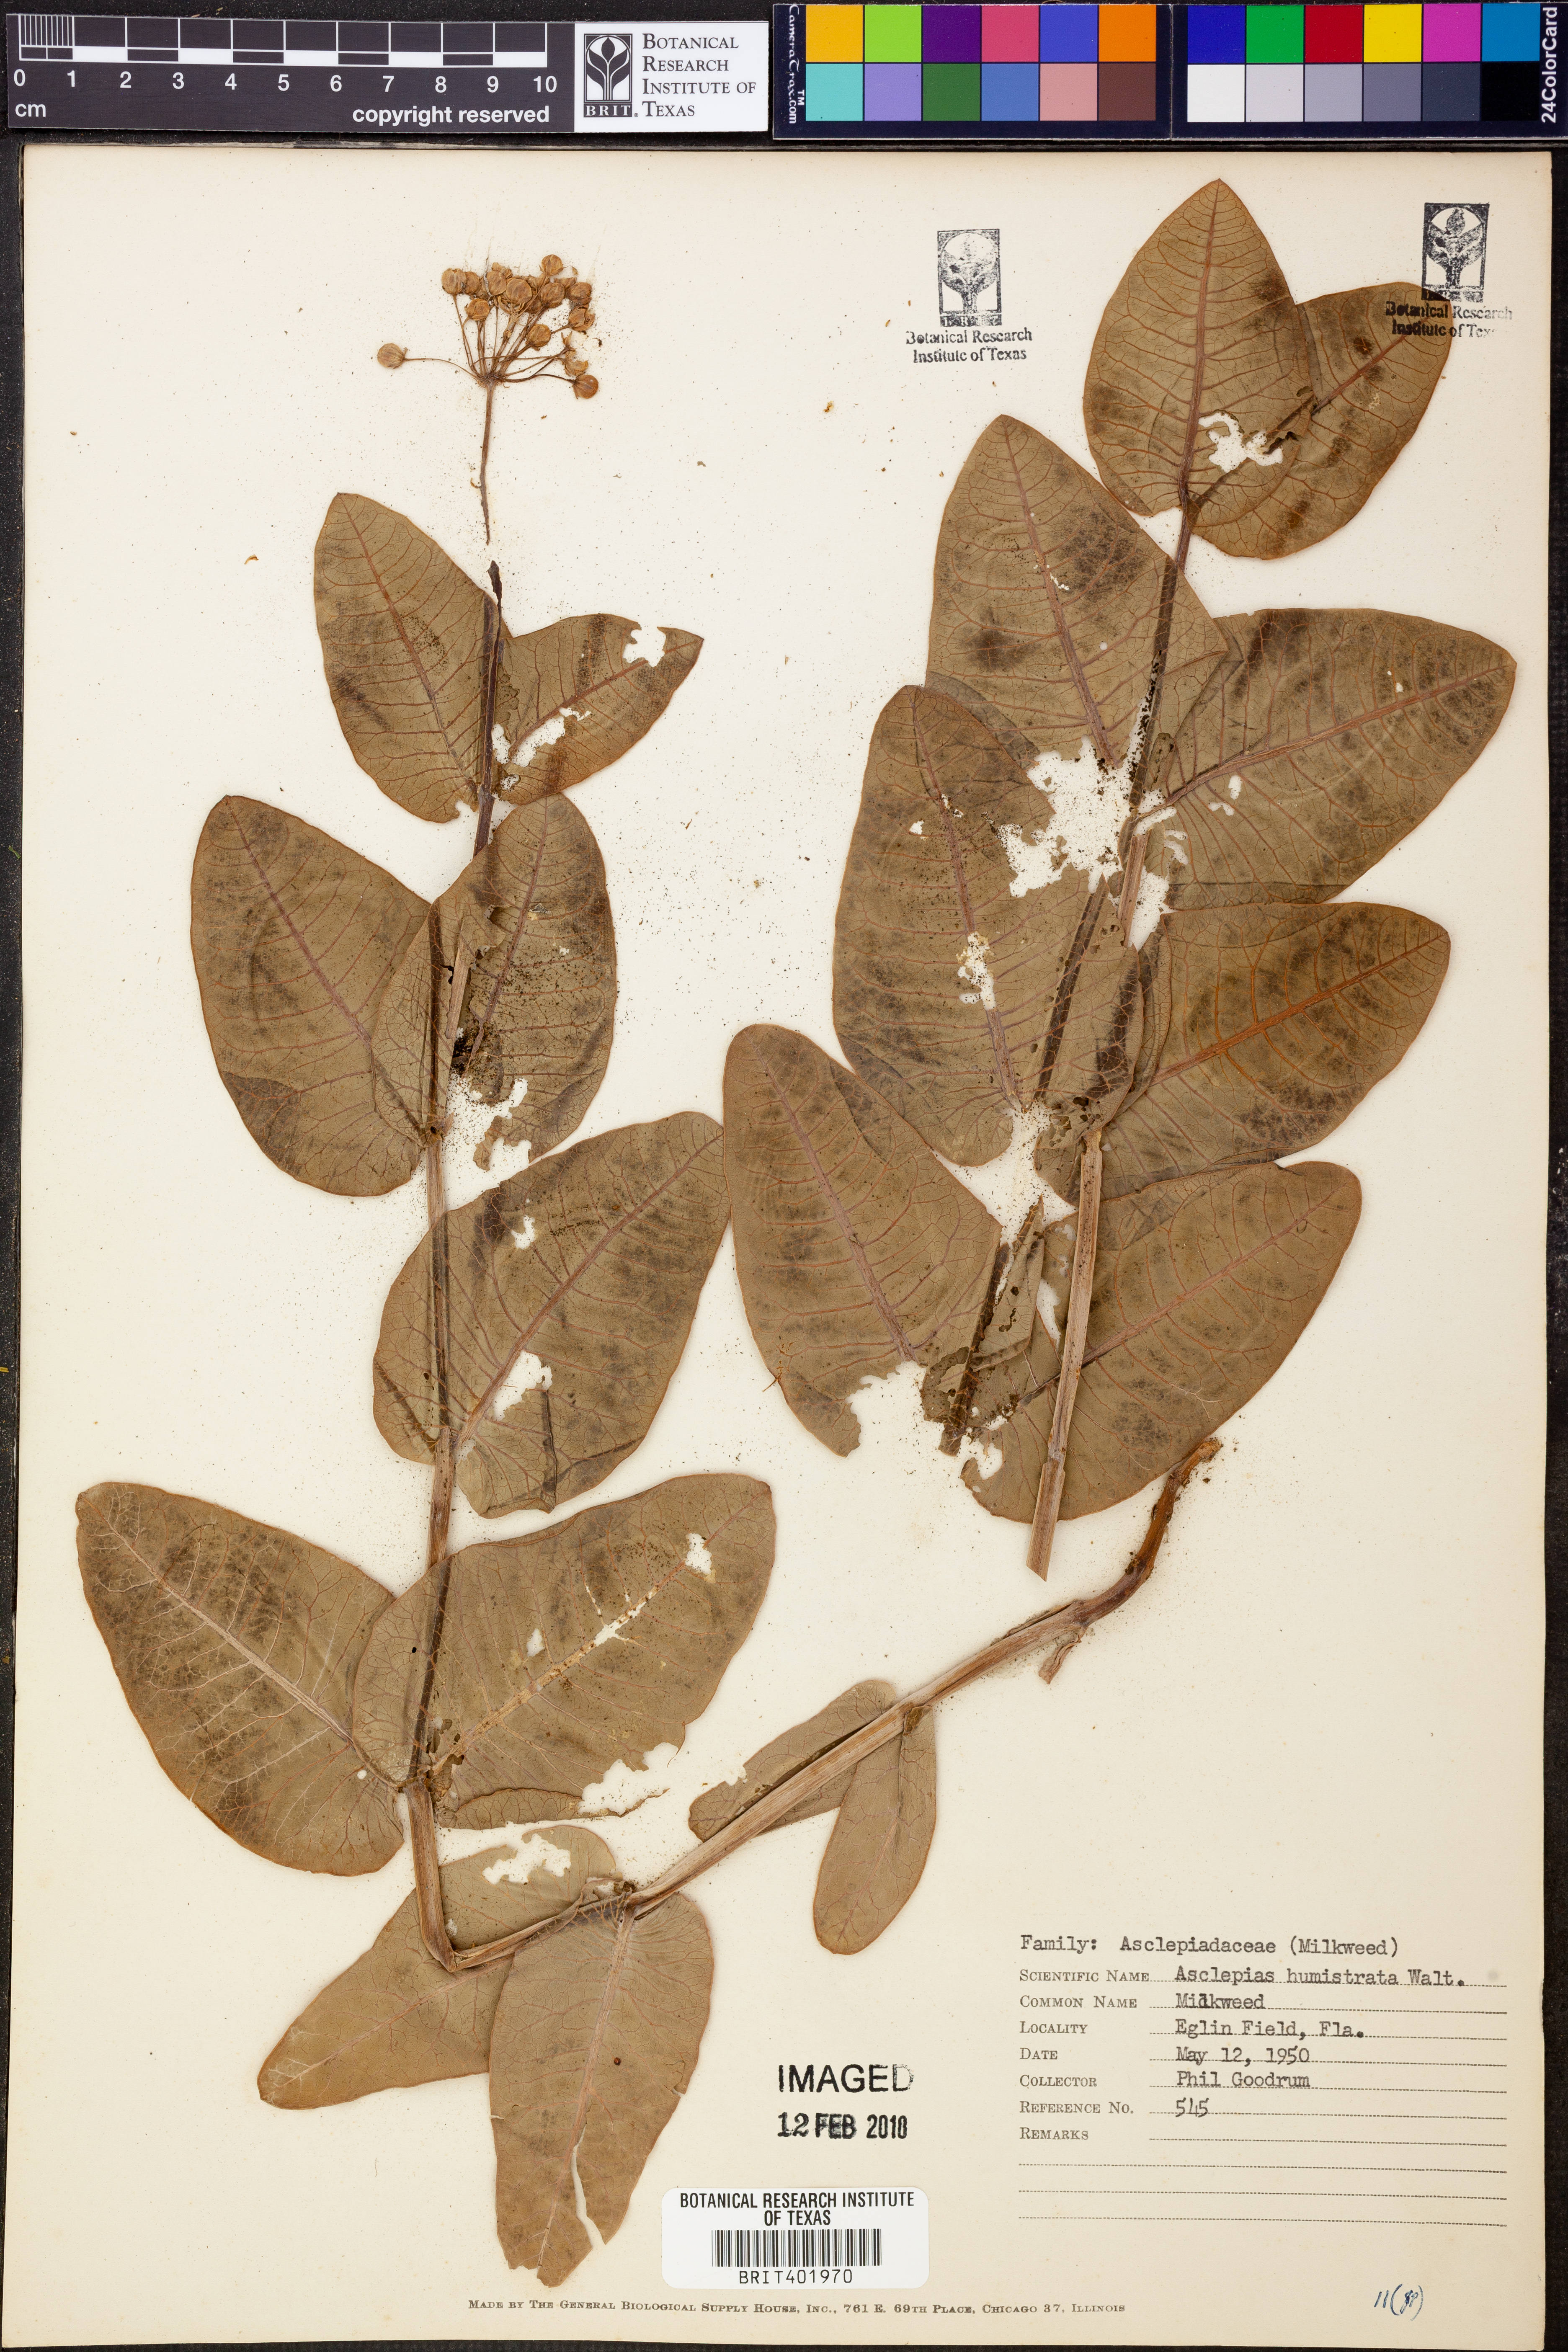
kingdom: Plantae
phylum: Tracheophyta
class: Magnoliopsida
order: Gentianales
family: Apocynaceae
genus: Asclepias
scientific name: Asclepias humistrata
